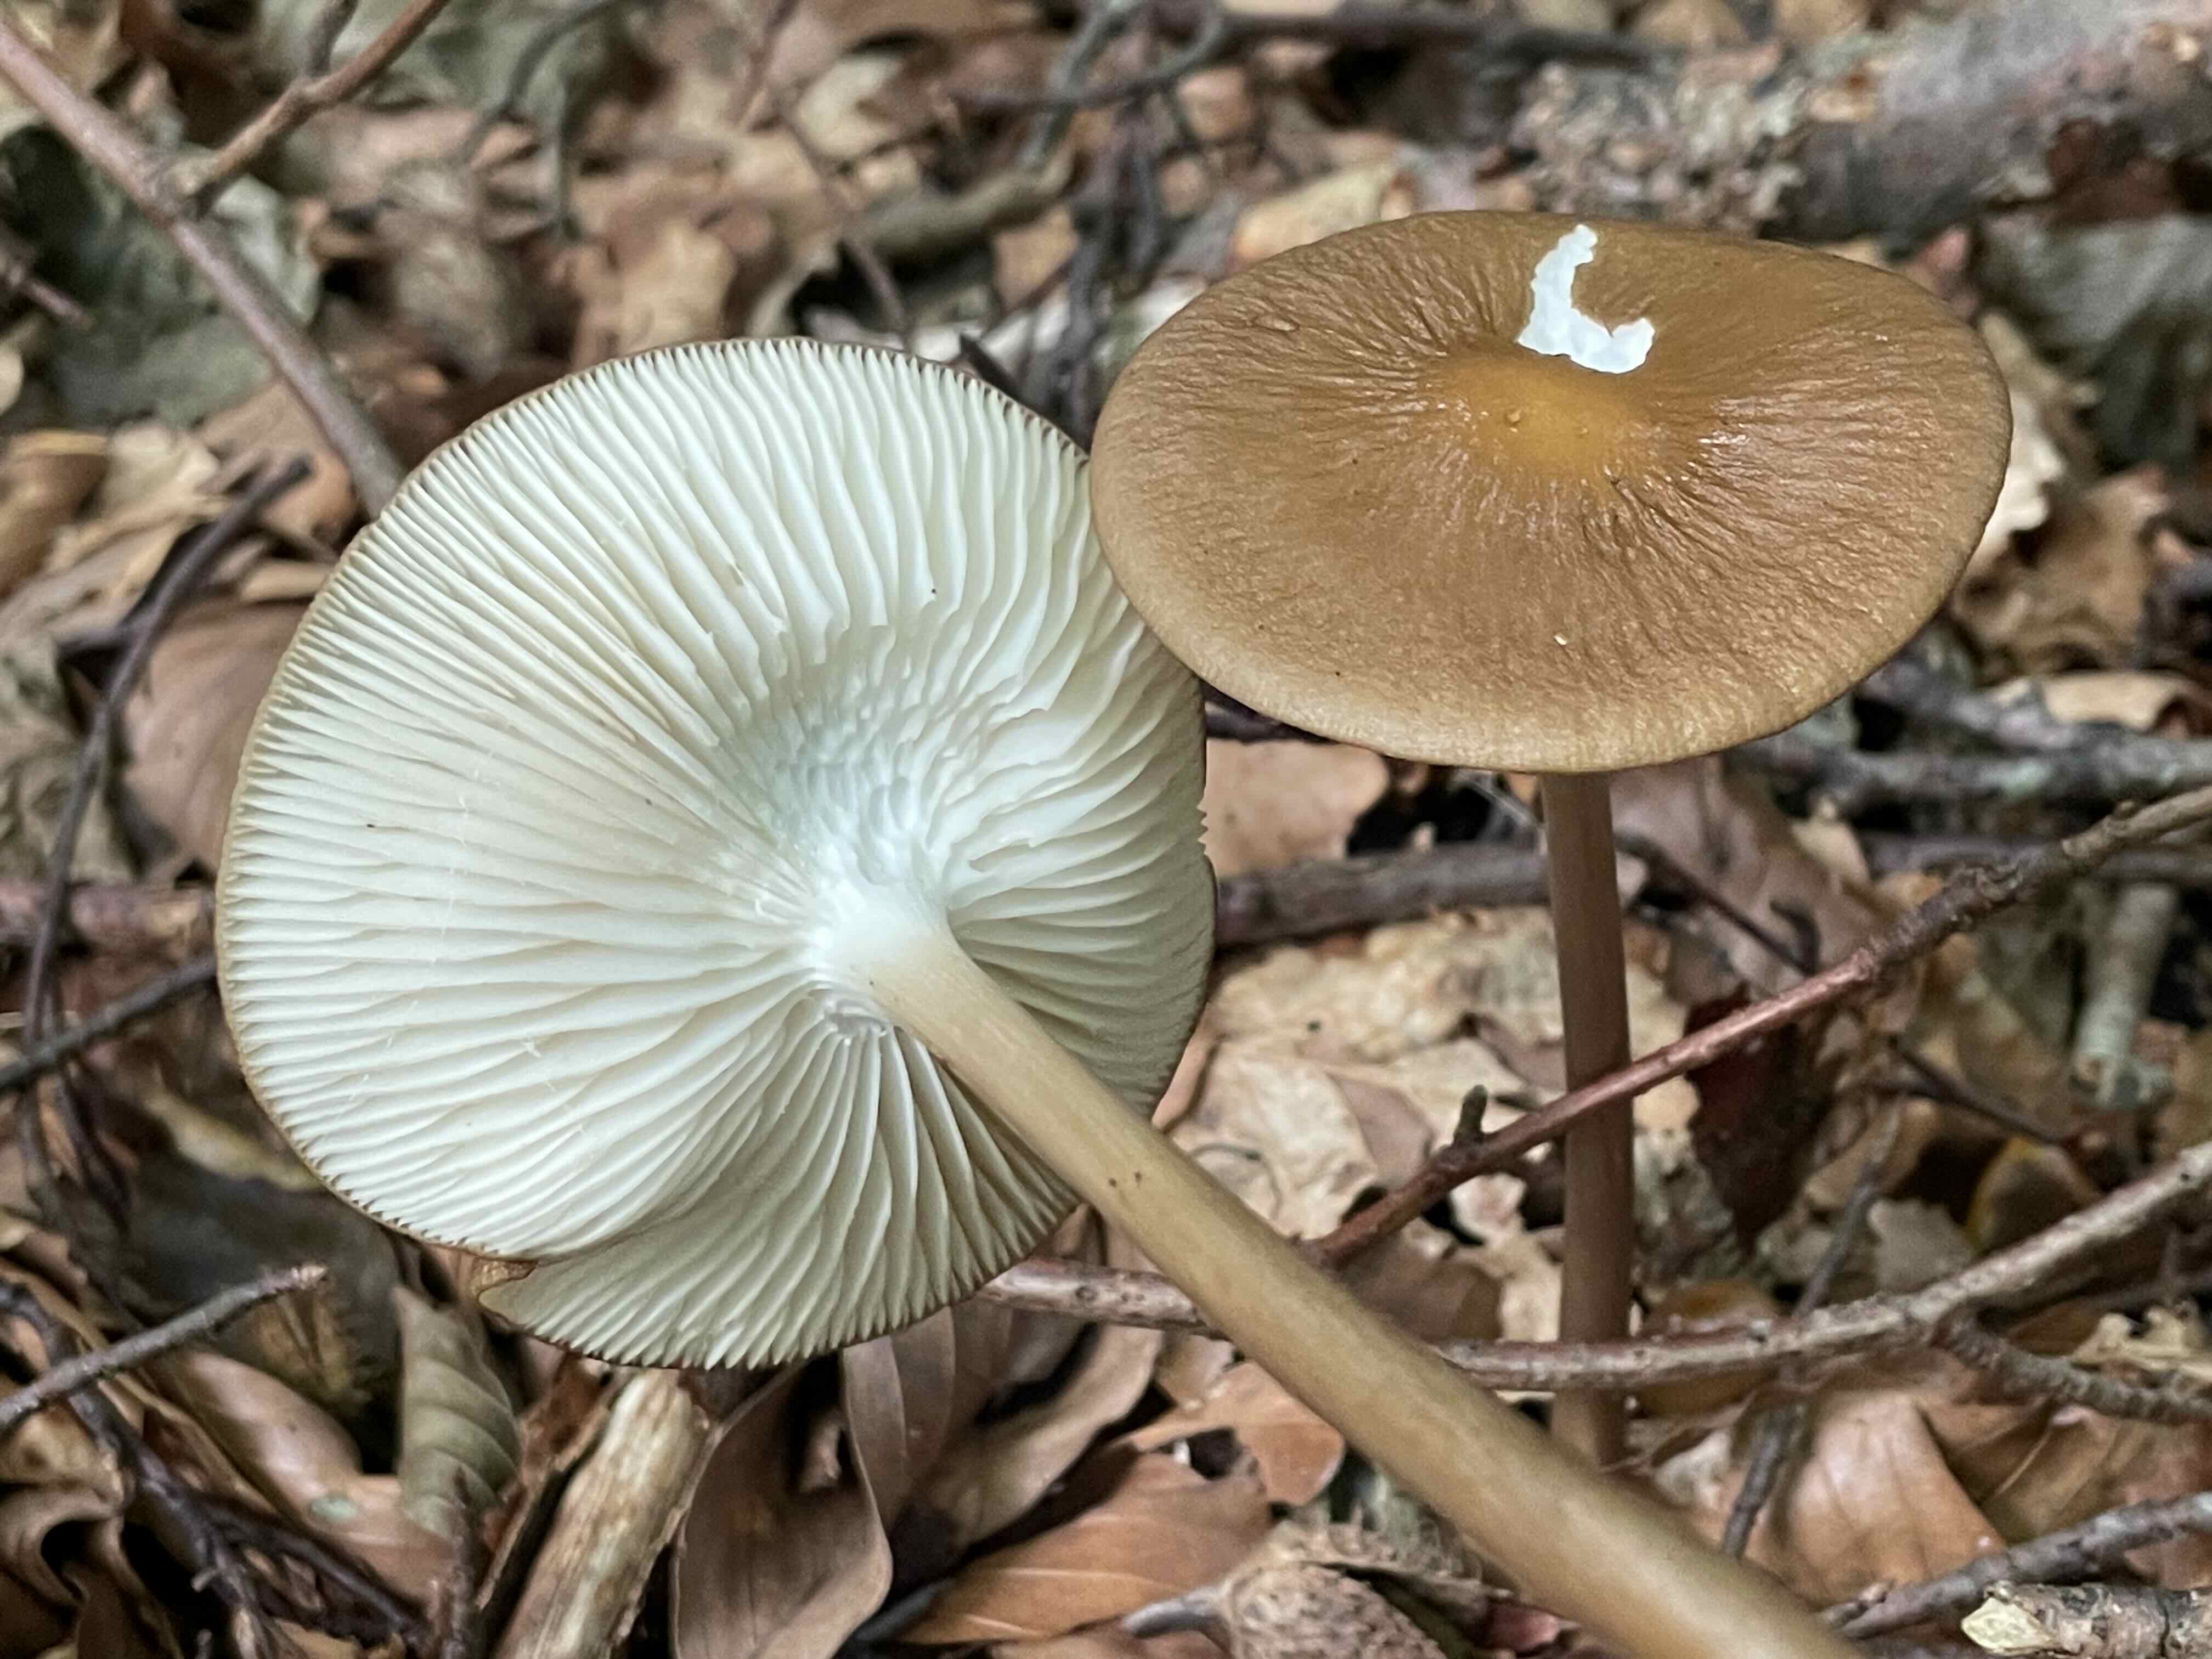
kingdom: Fungi
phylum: Basidiomycota
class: Agaricomycetes
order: Agaricales
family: Physalacriaceae
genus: Hymenopellis
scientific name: Hymenopellis radicata
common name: almindelig pælerodshat
